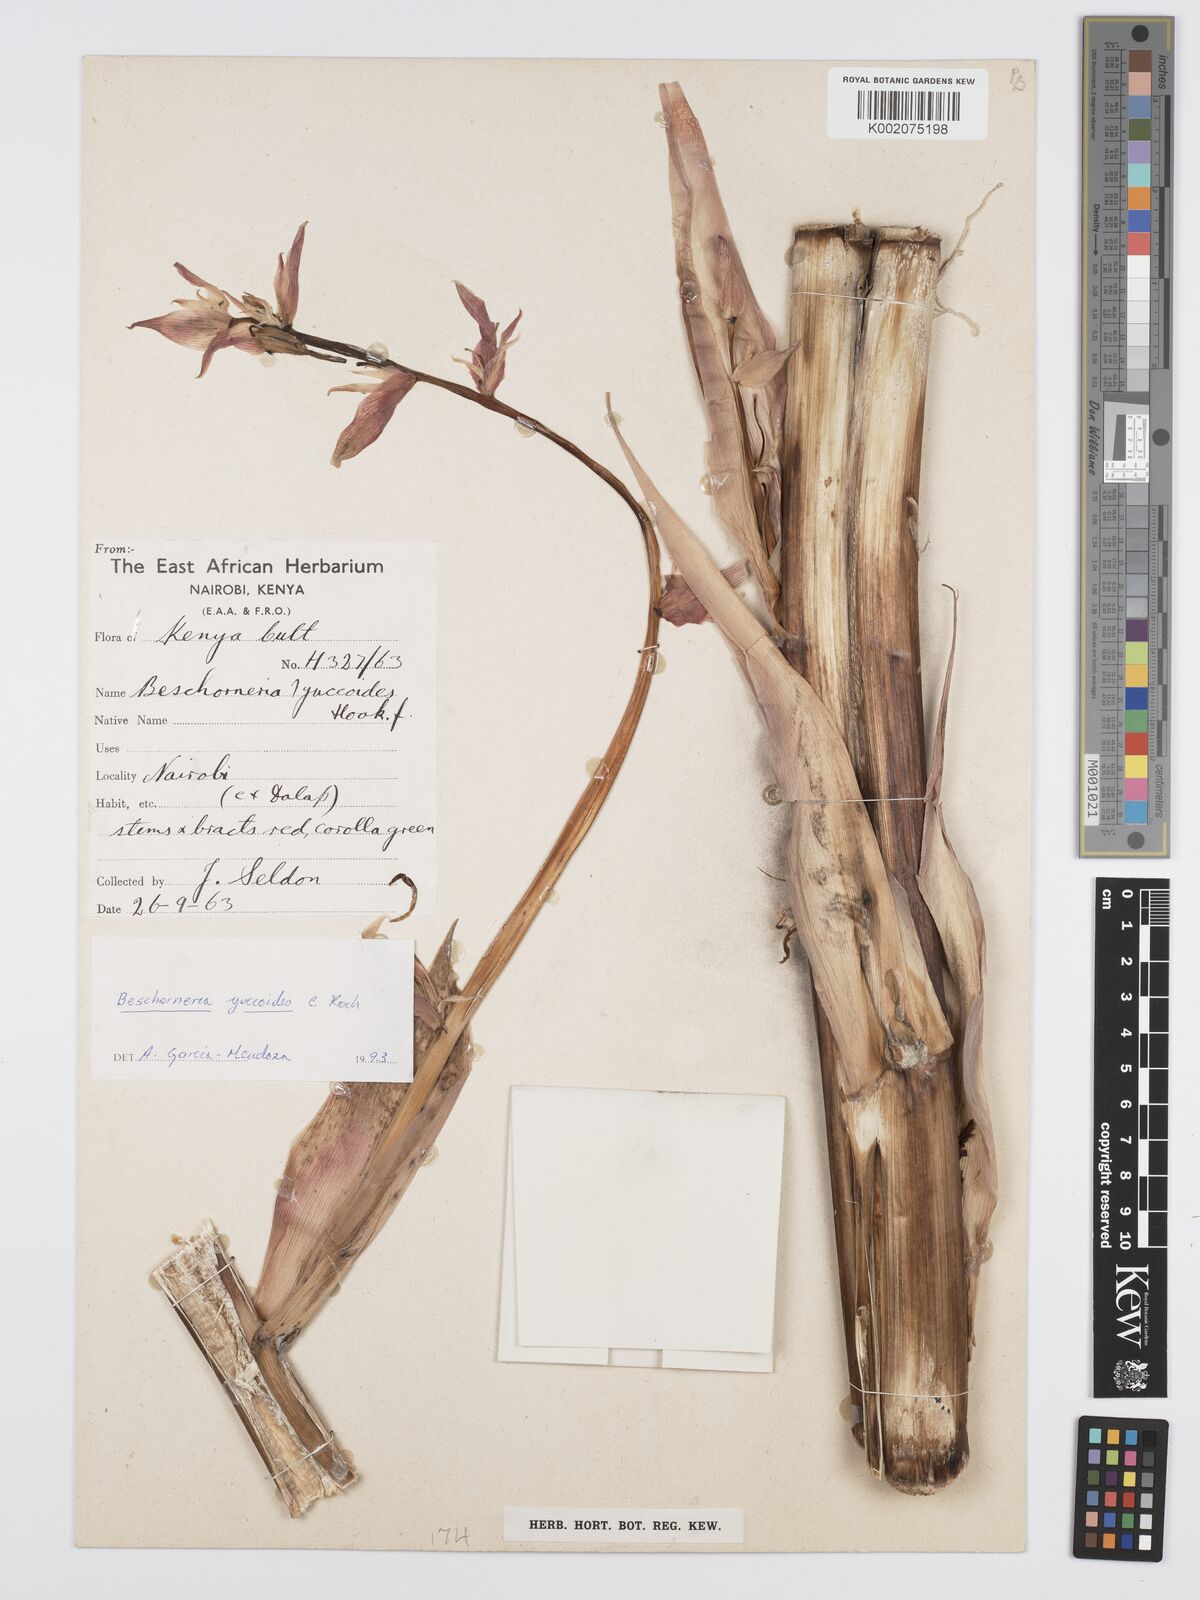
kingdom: Plantae
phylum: Tracheophyta
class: Liliopsida
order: Asparagales
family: Asparagaceae
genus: Beschorneria
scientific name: Beschorneria yuccoides
